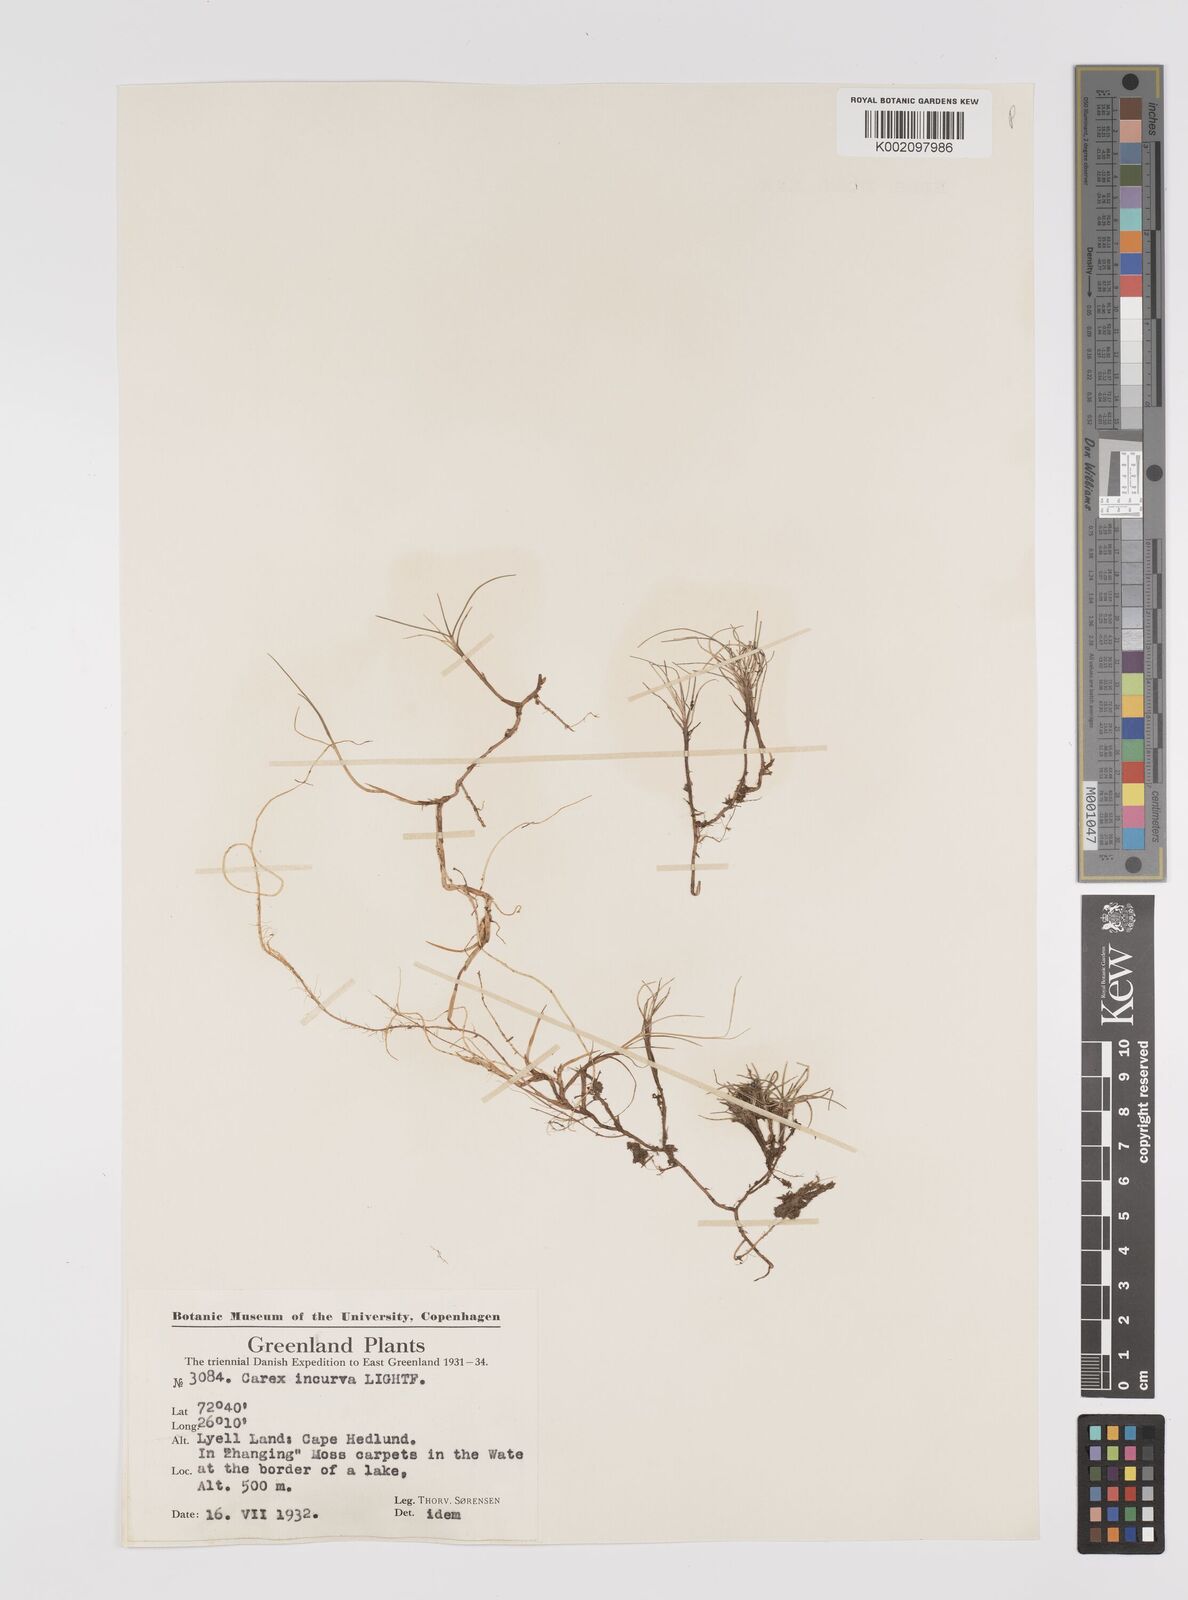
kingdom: Plantae
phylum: Tracheophyta
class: Liliopsida
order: Poales
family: Cyperaceae
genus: Carex
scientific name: Carex maritima
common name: Curved sedge
